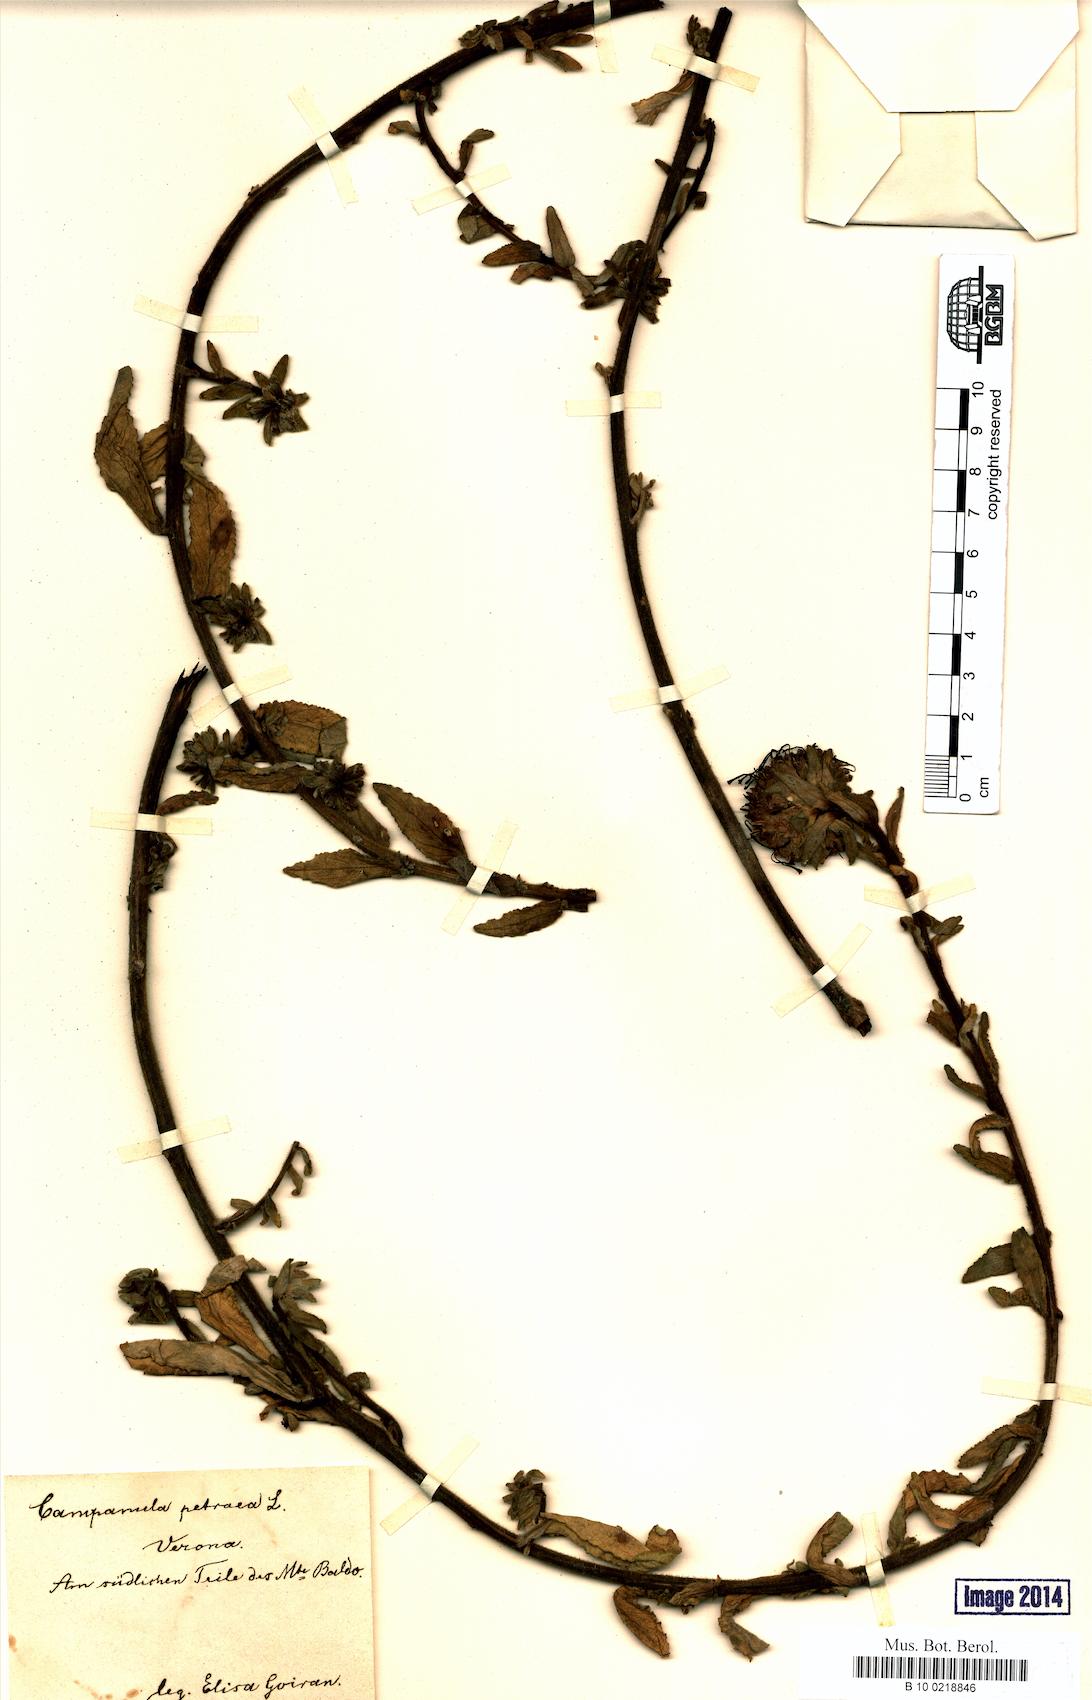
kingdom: Plantae
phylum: Tracheophyta
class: Magnoliopsida
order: Asterales
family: Campanulaceae
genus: Campanula
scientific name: Campanula petraea
